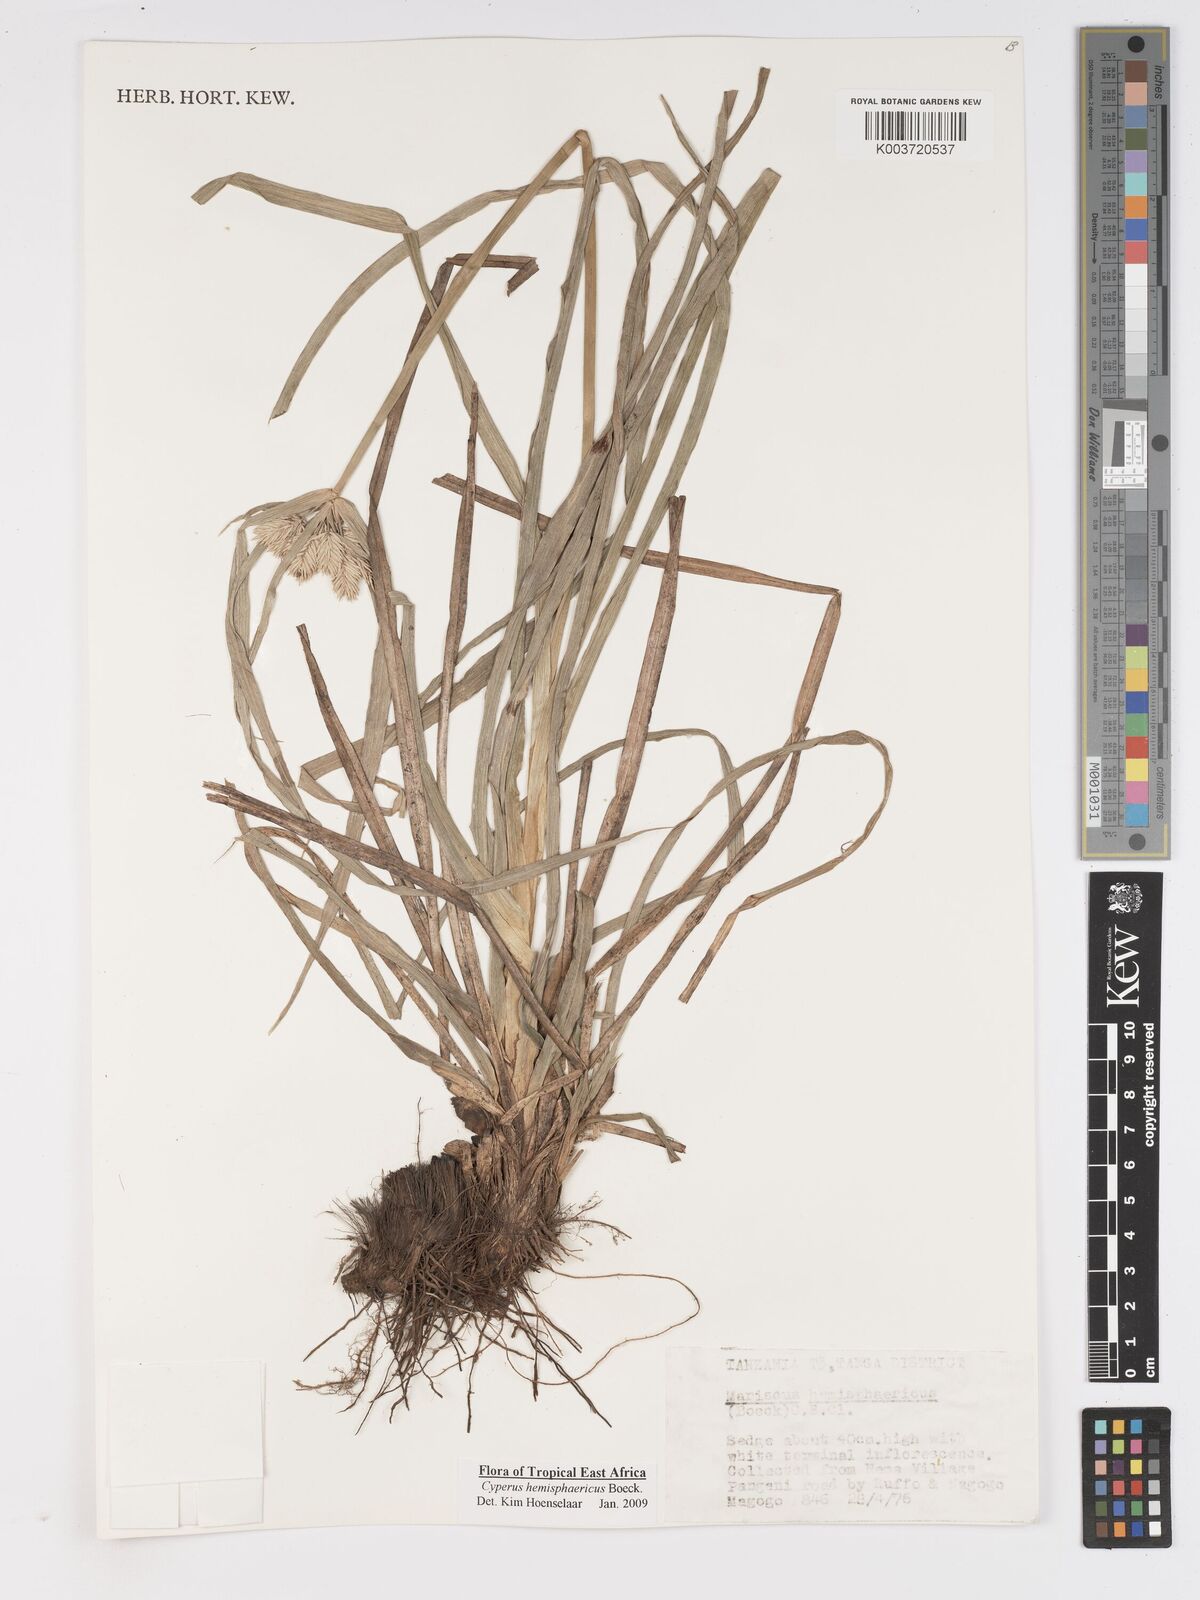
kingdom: Plantae
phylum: Tracheophyta
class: Liliopsida
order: Poales
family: Cyperaceae
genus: Cyperus
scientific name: Cyperus hemisphaericus
